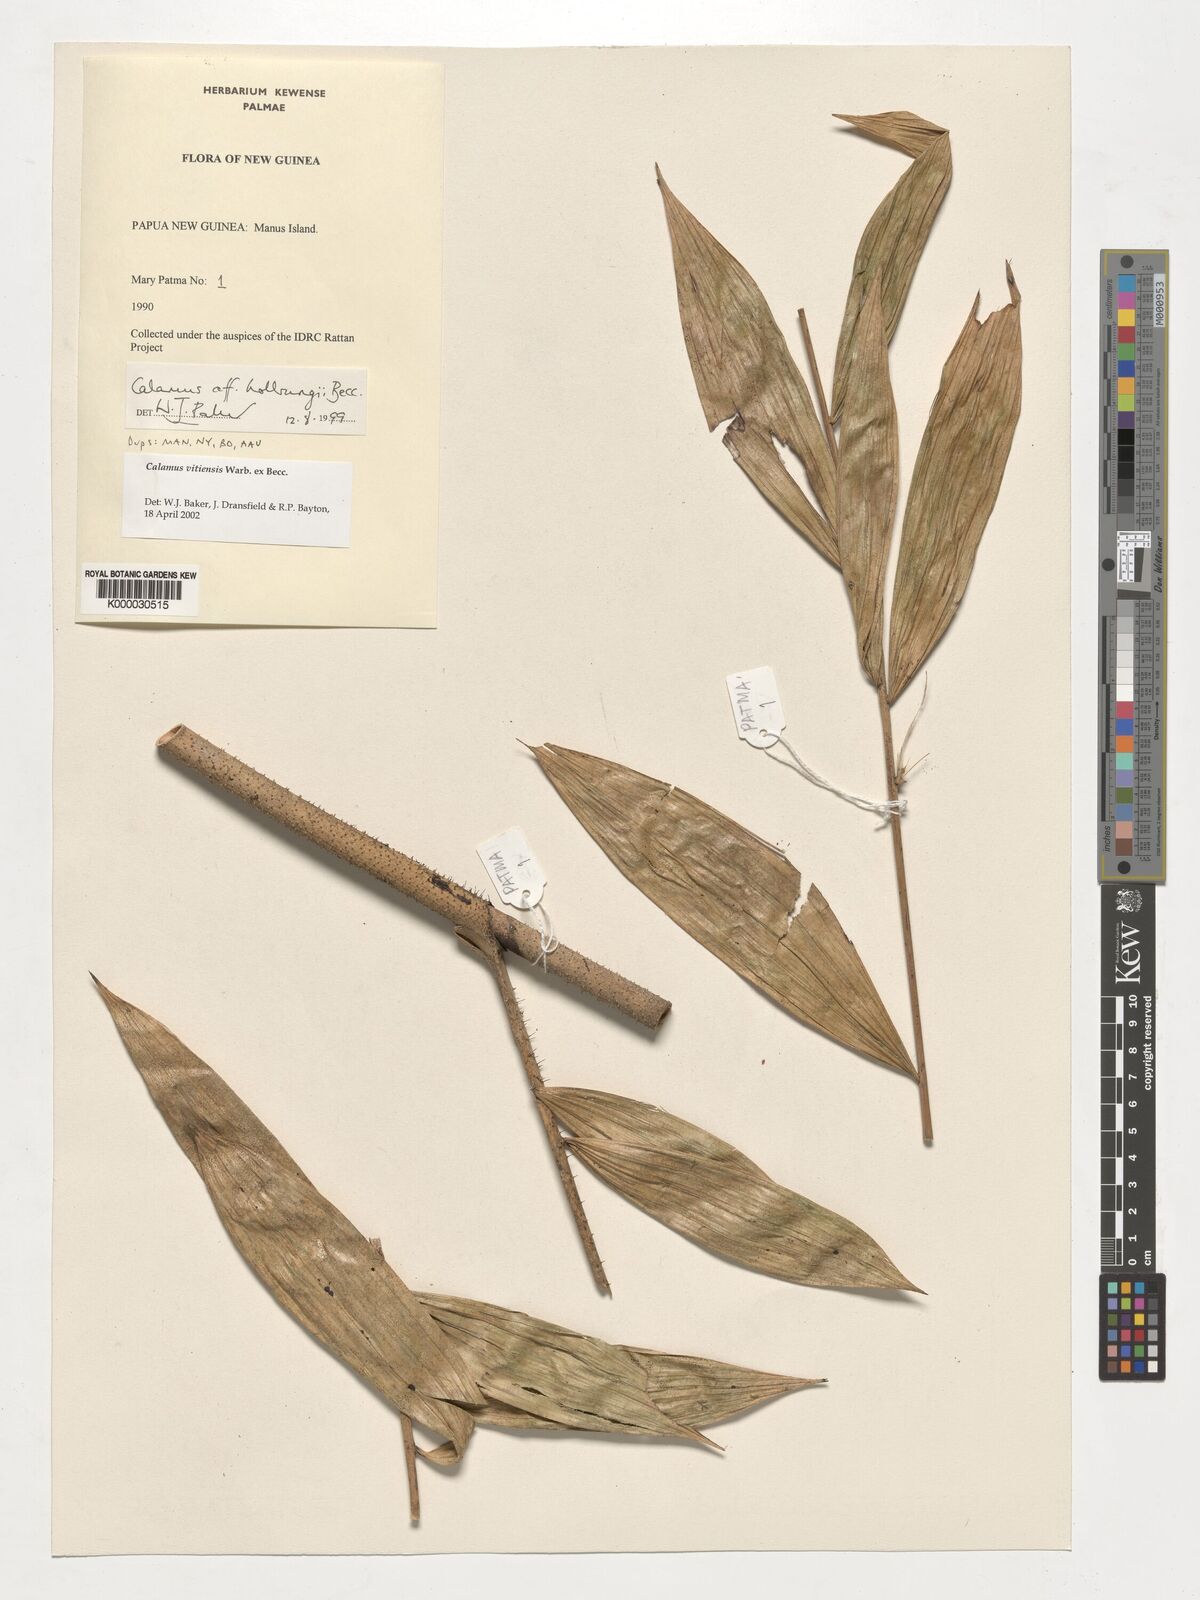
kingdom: Plantae
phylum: Tracheophyta
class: Liliopsida
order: Arecales
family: Arecaceae
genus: Calamus
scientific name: Calamus vitiensis
